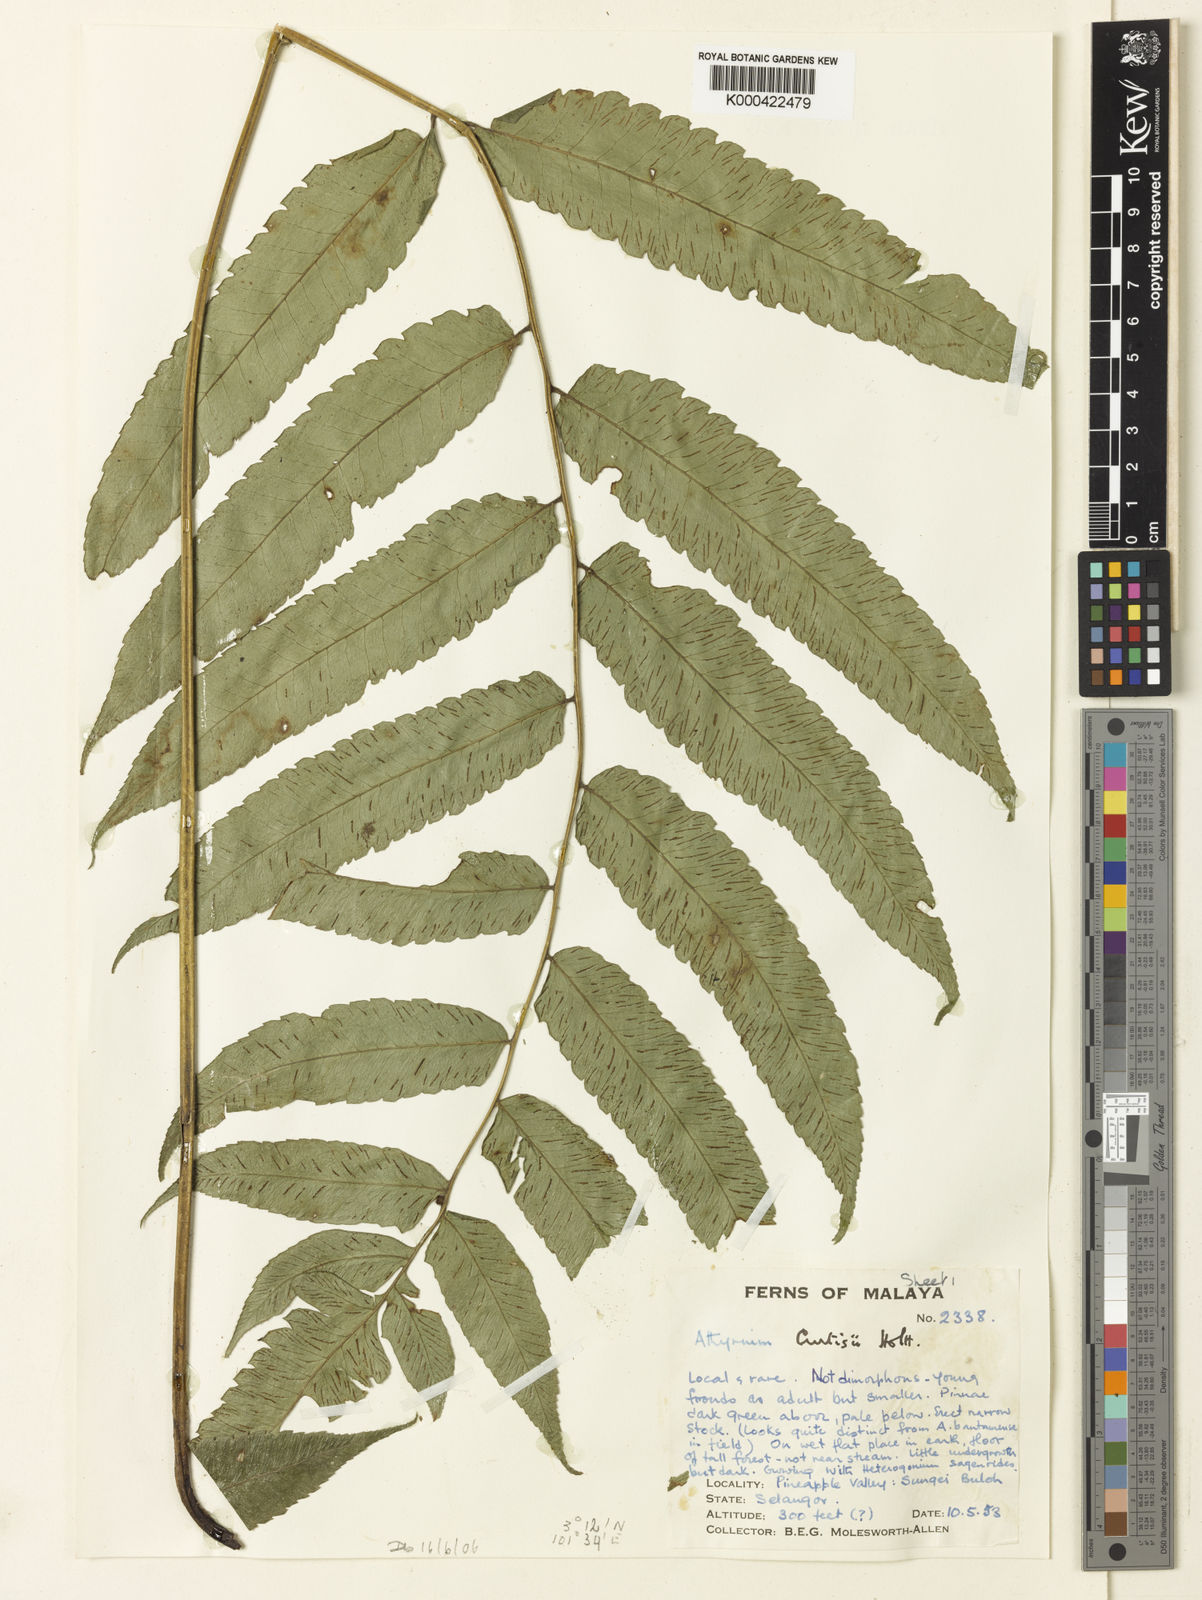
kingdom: Plantae
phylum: Tracheophyta
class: Polypodiopsida
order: Polypodiales
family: Athyriaceae
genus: Diplazium
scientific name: Diplazium curtisii
